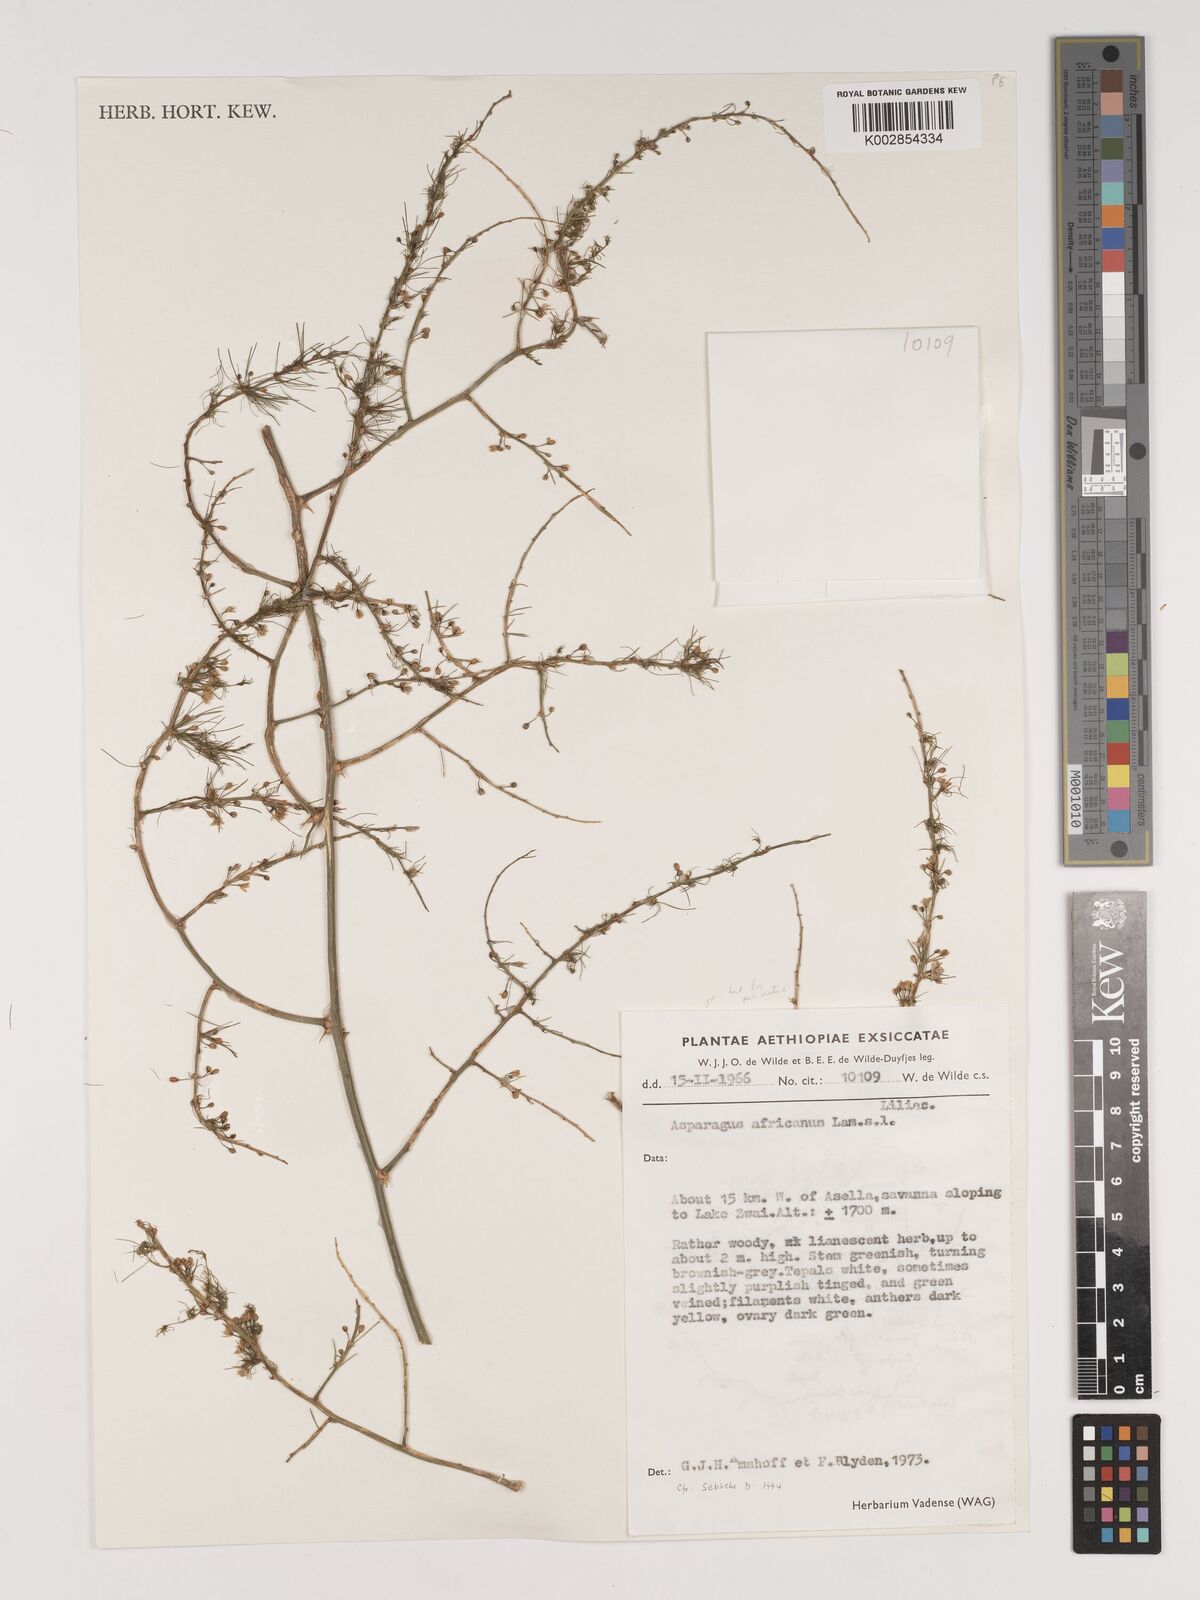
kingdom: Plantae
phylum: Tracheophyta
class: Liliopsida
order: Asparagales
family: Asparagaceae
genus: Asparagus
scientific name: Asparagus africanus
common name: Asparagus-fern
